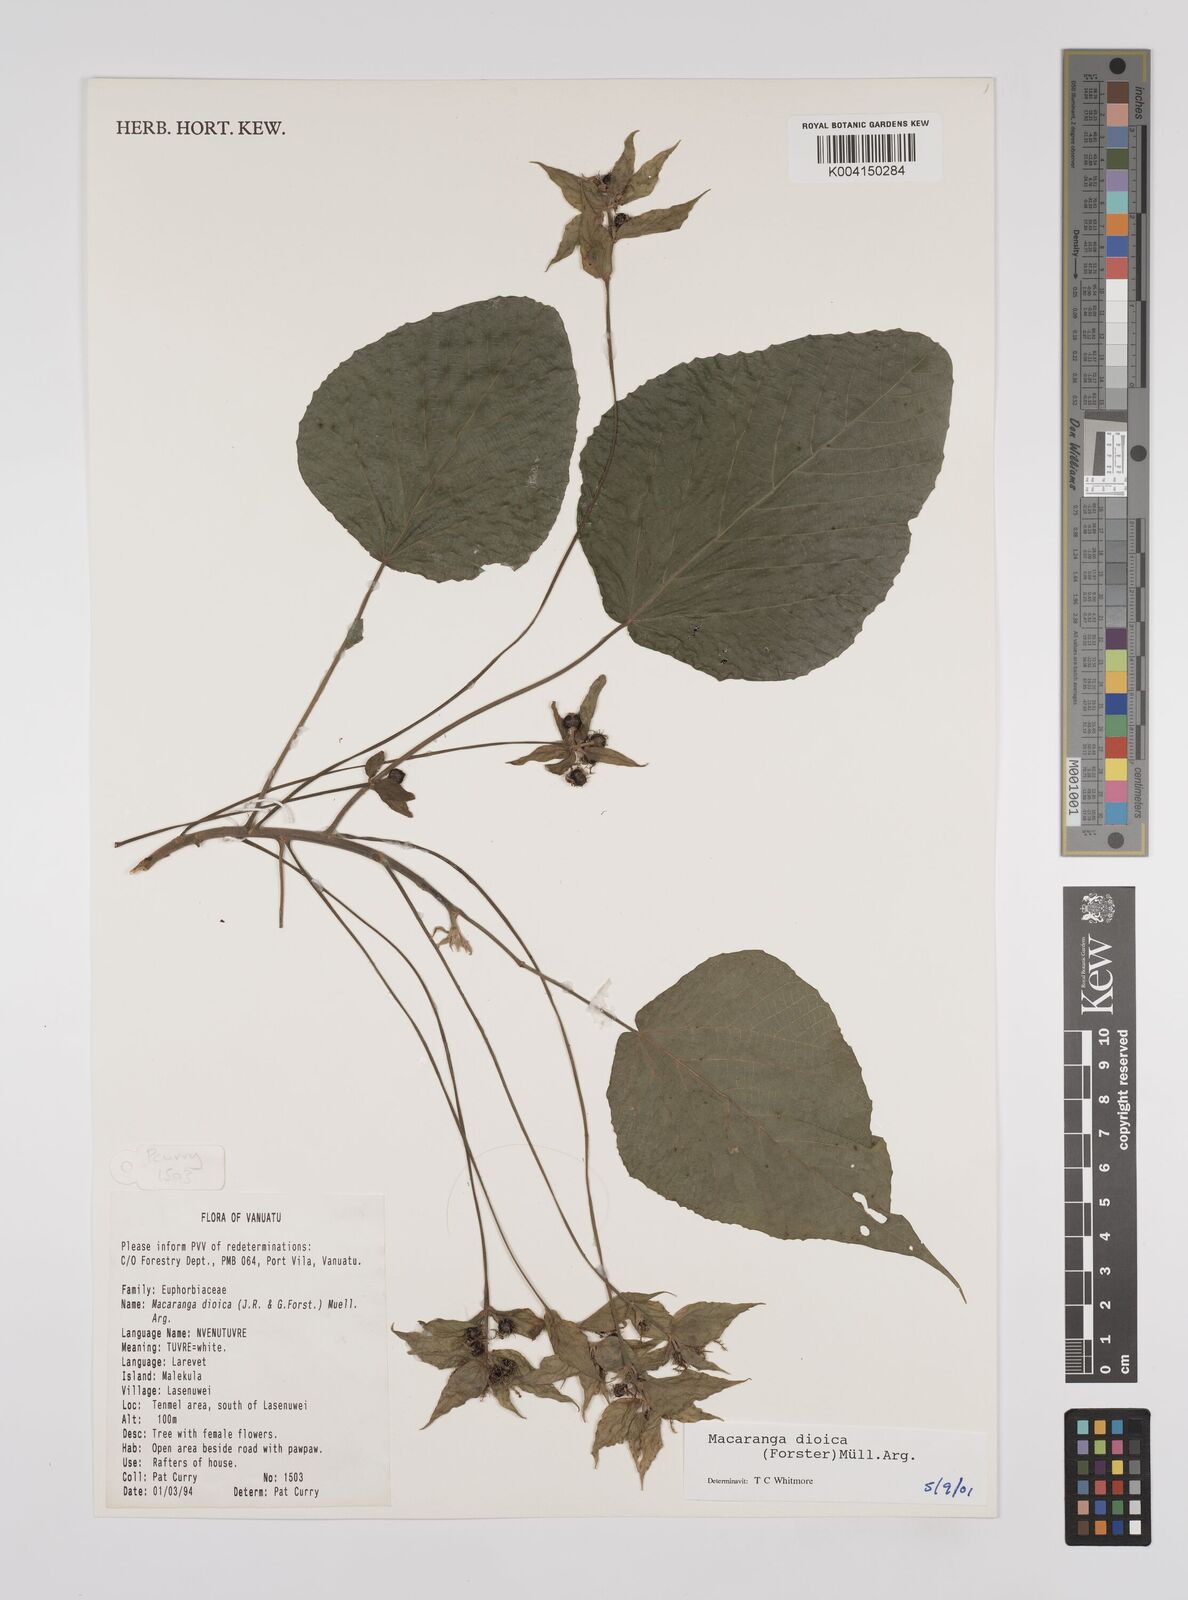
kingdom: Plantae
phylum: Tracheophyta
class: Magnoliopsida
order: Malpighiales
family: Euphorbiaceae
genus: Macaranga
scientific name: Macaranga dioica
